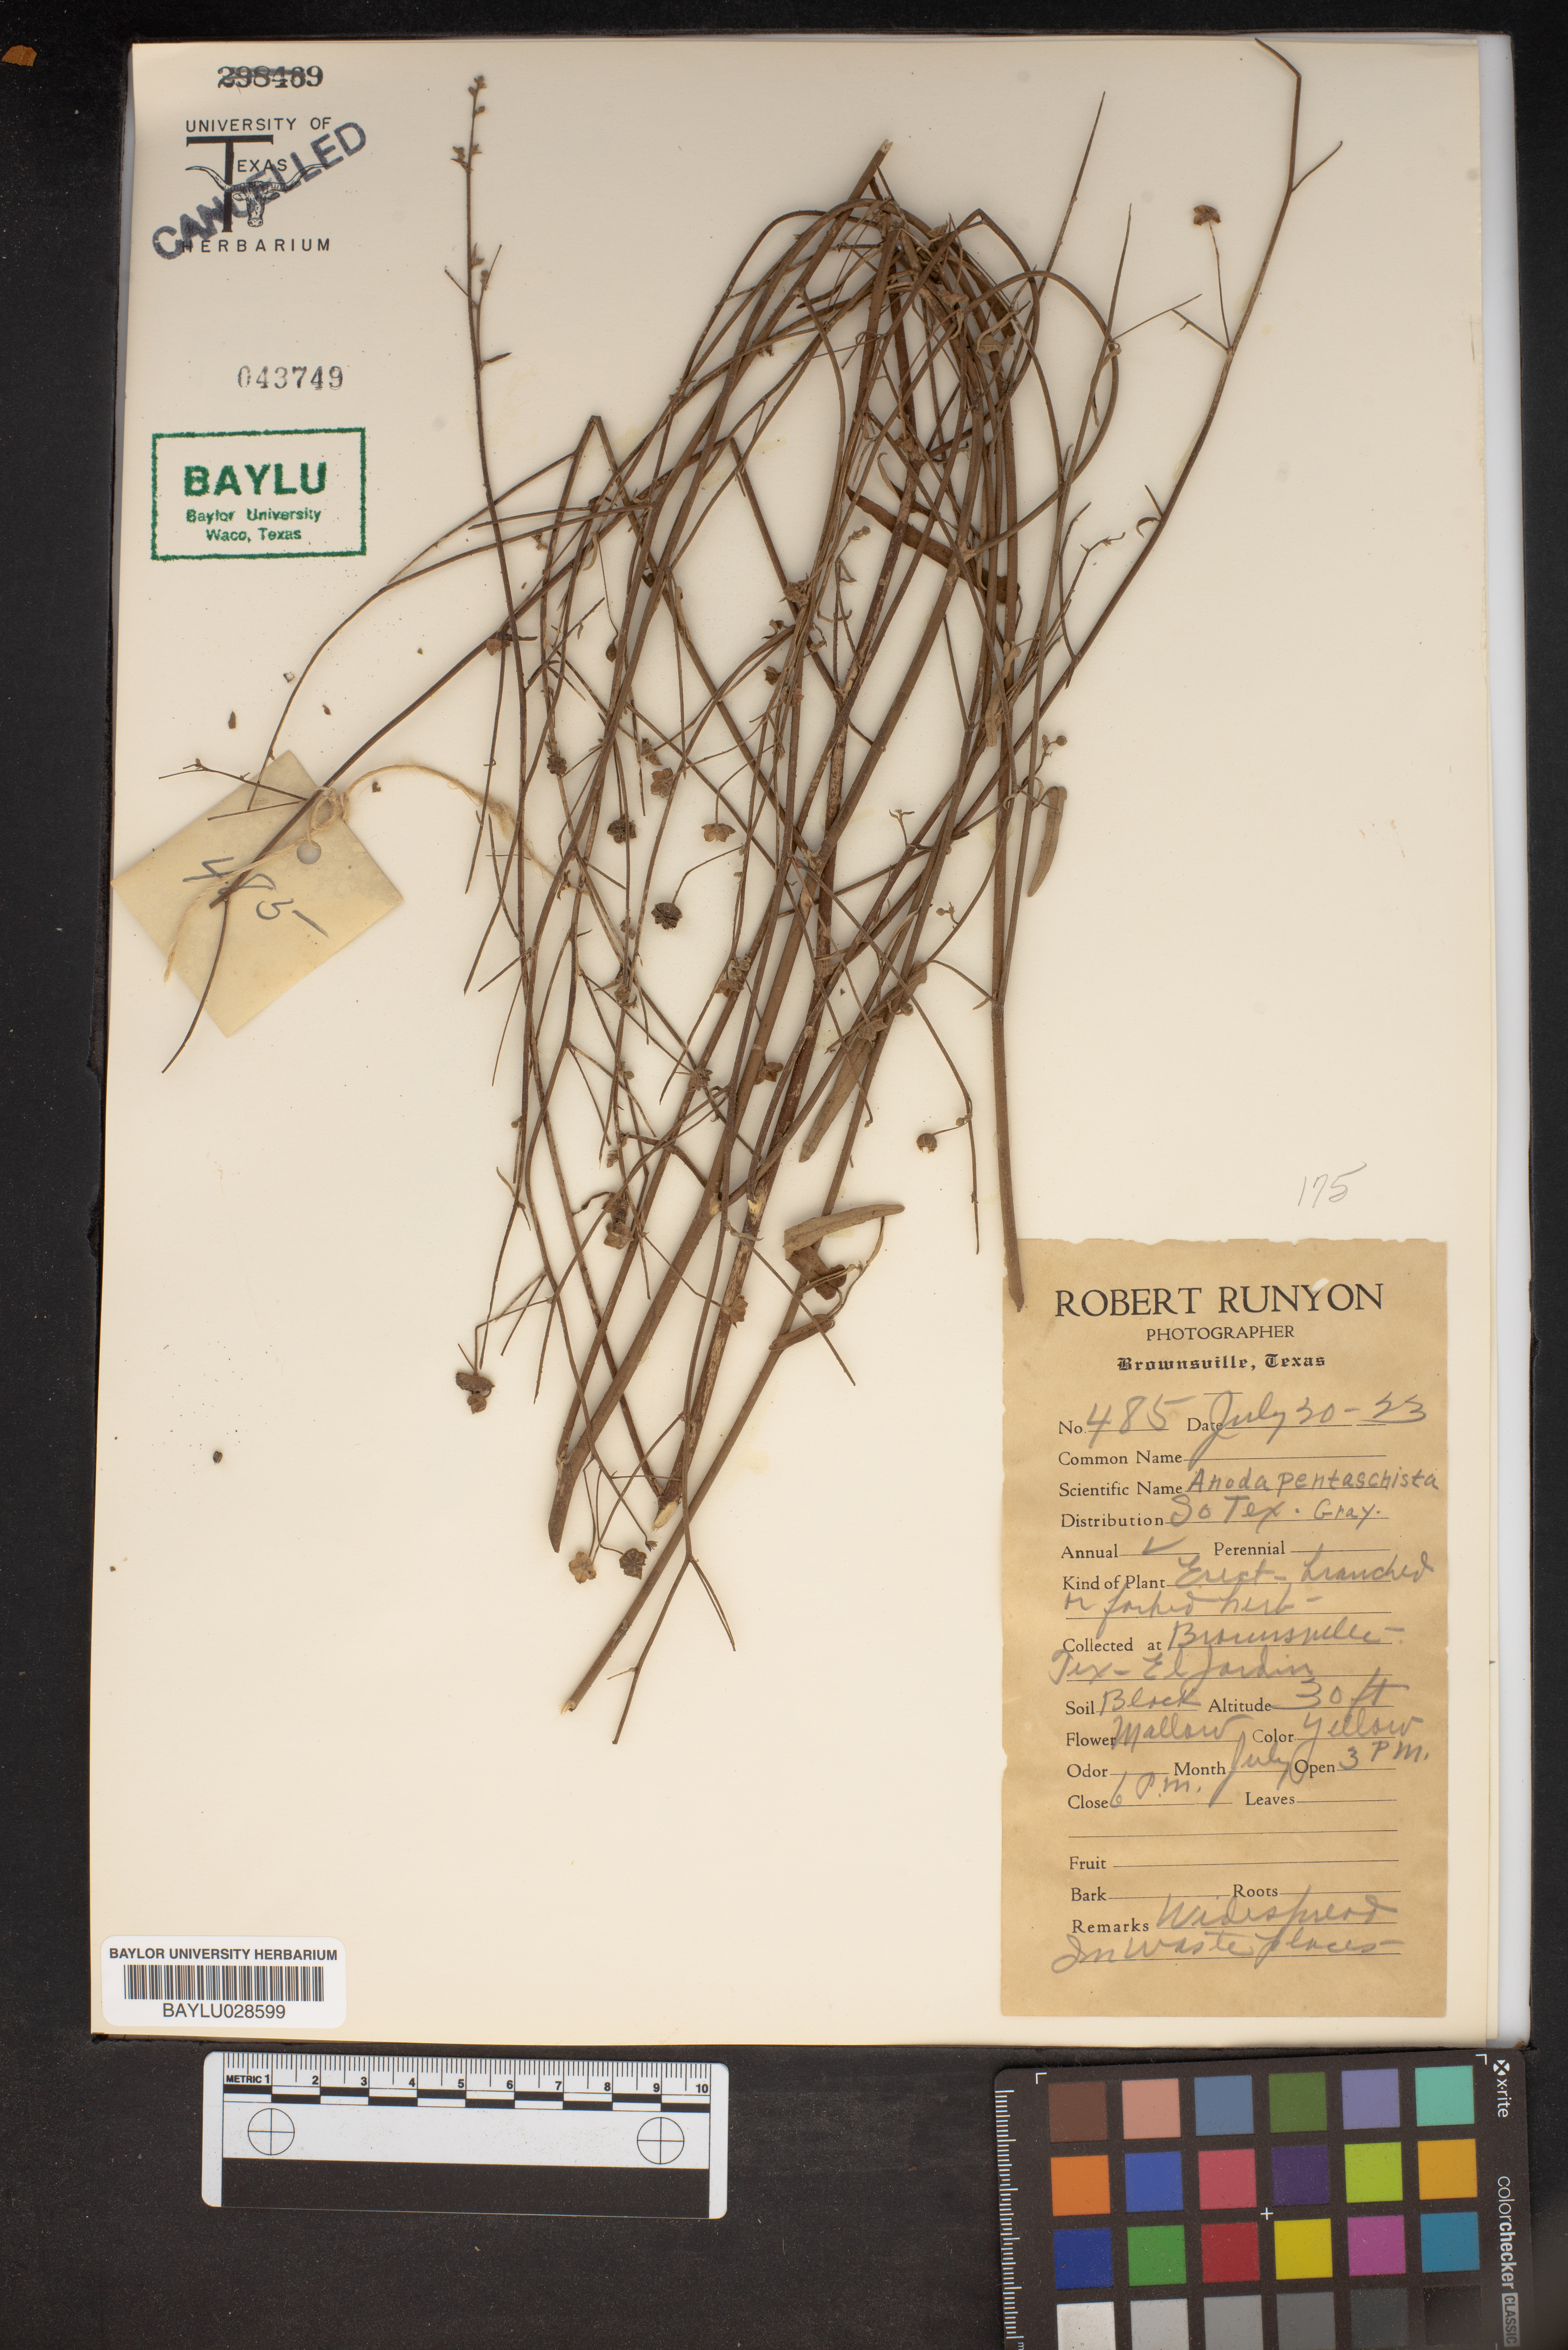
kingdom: Plantae
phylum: Tracheophyta
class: Magnoliopsida
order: Malvales
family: Malvaceae
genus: Anoda
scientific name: Anoda pentaschista
